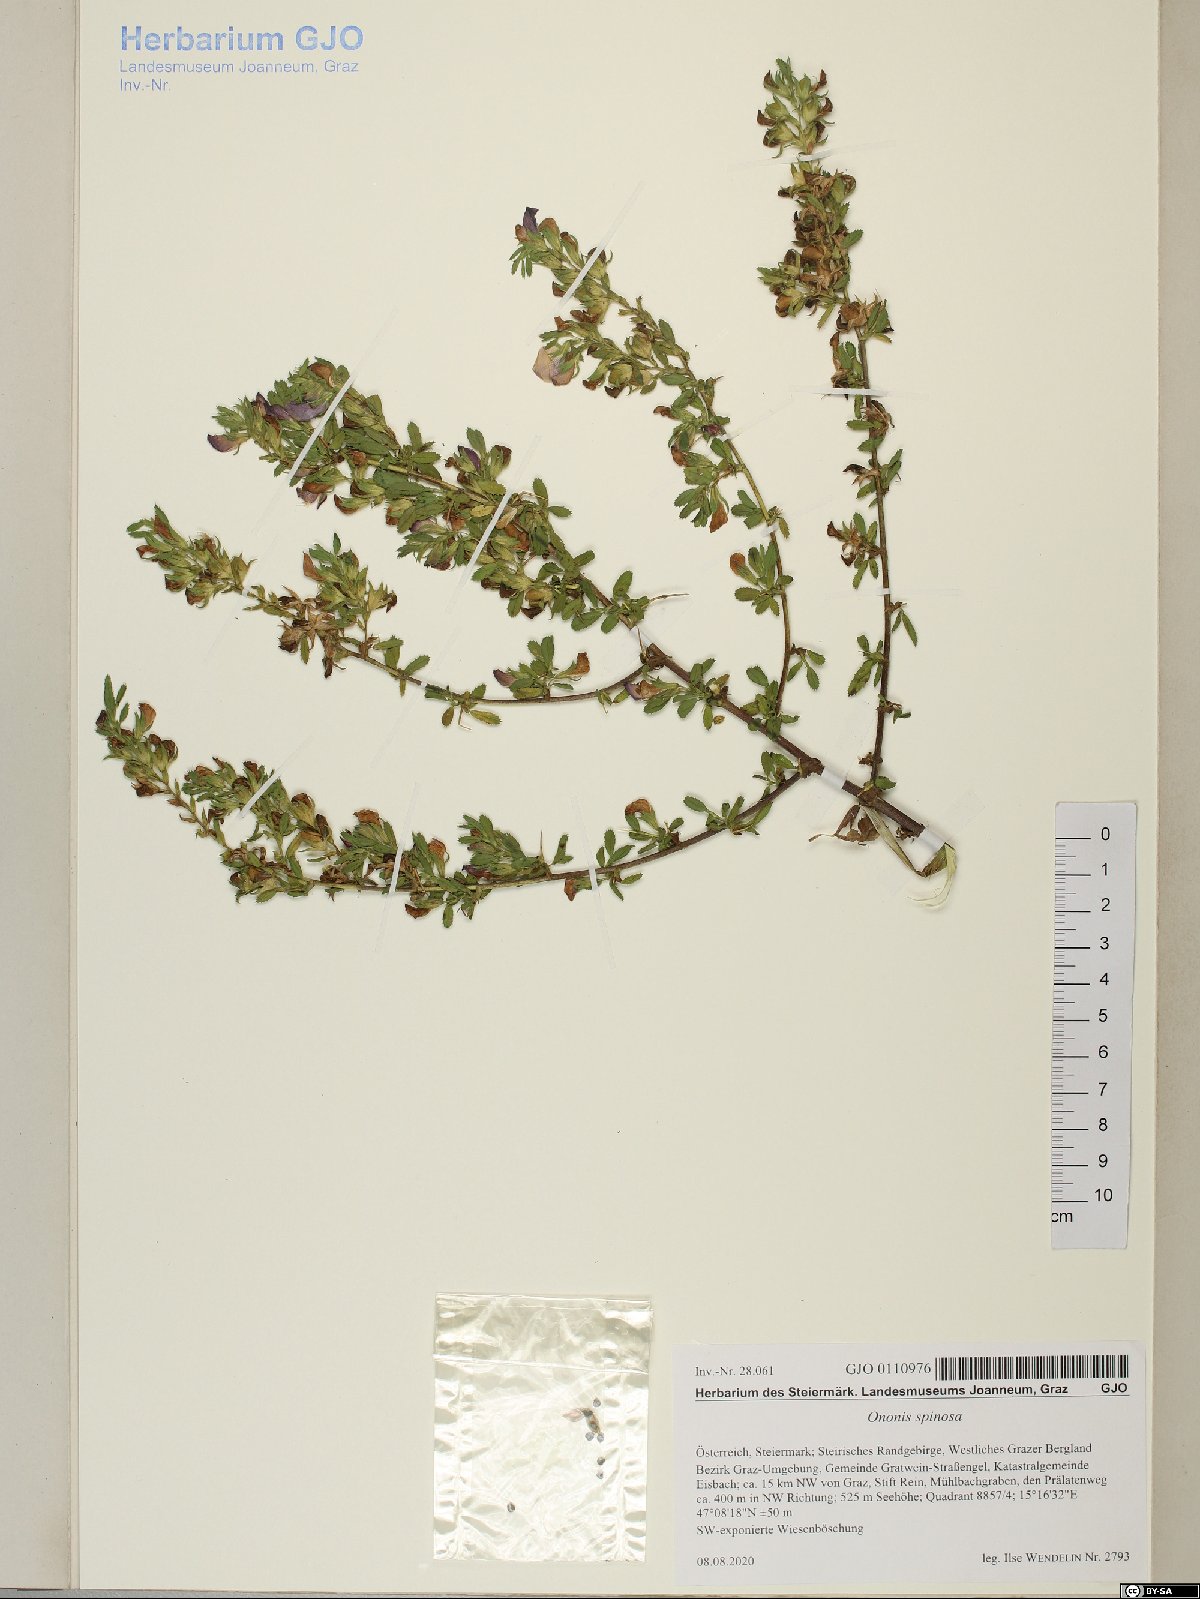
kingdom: Plantae
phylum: Tracheophyta
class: Magnoliopsida
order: Fabales
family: Fabaceae
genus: Ononis
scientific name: Ononis spinosa
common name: Spiny restharrow
